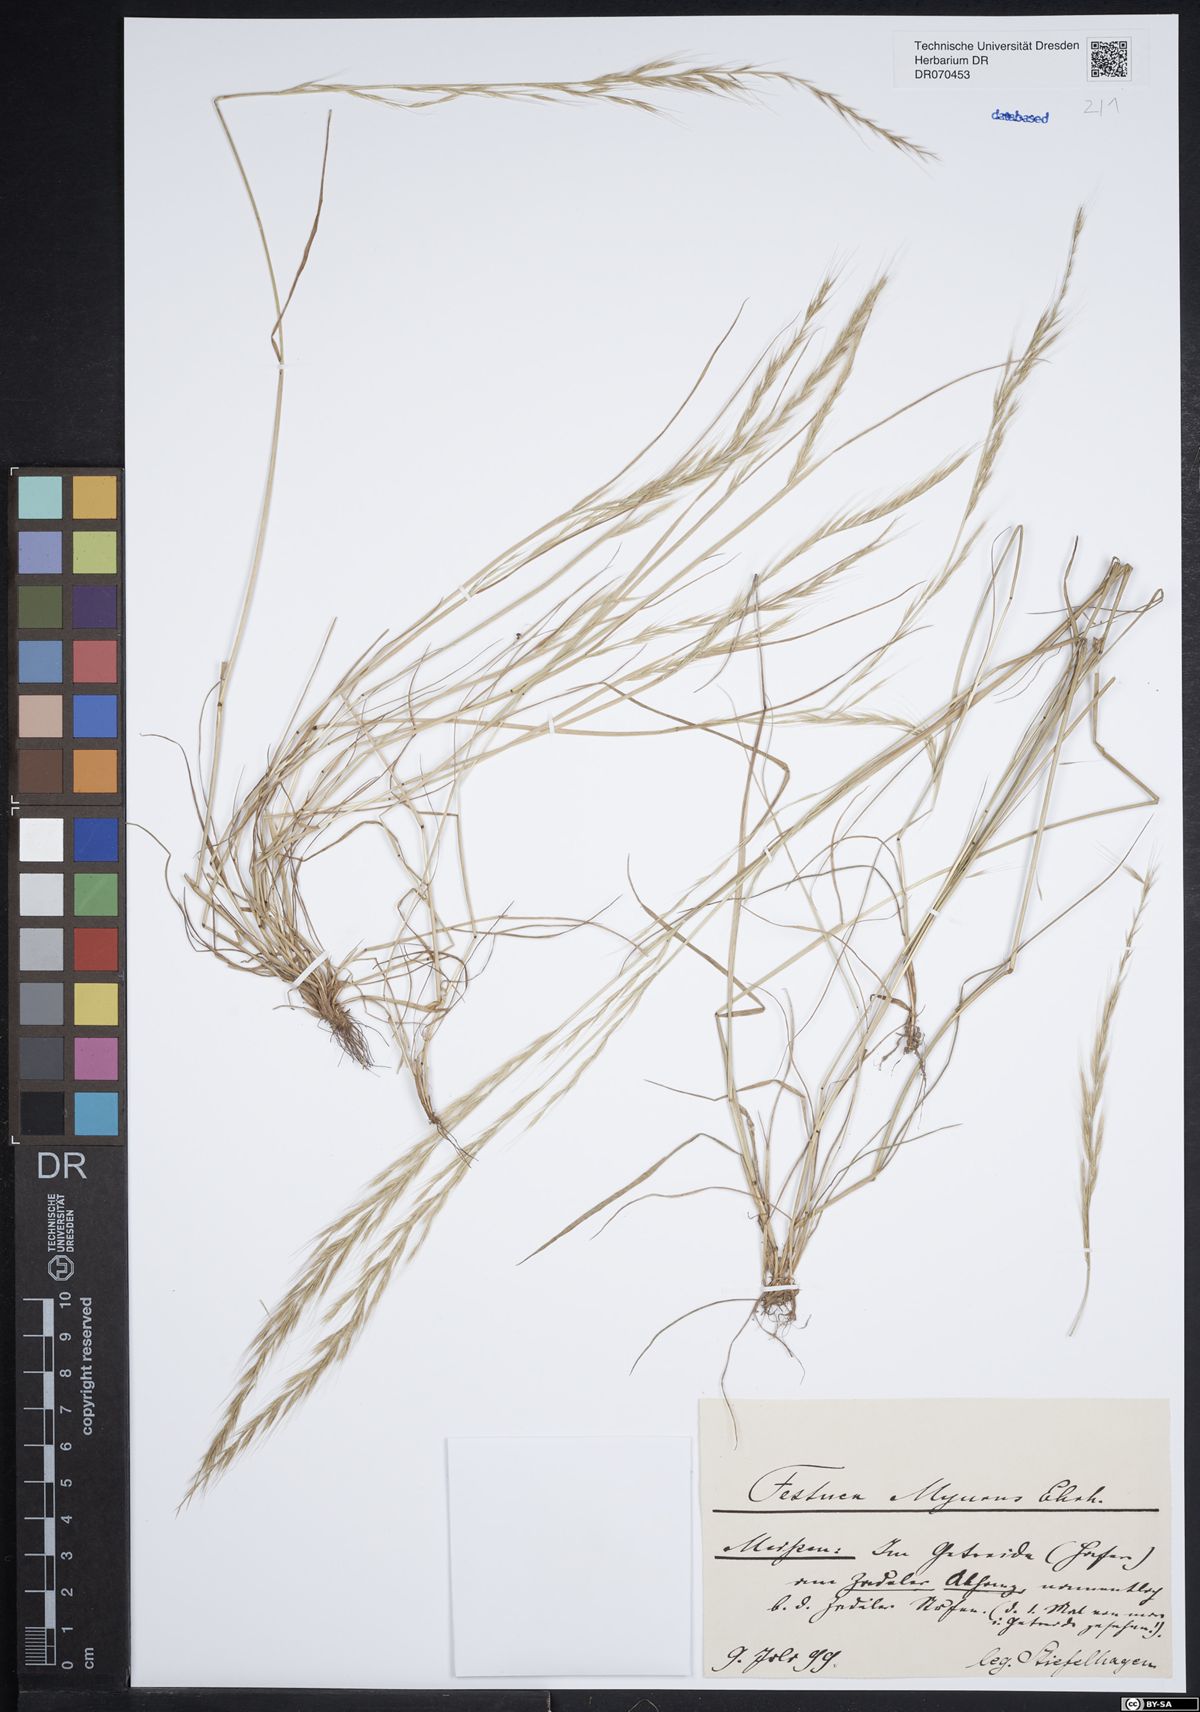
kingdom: Plantae
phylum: Tracheophyta
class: Liliopsida
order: Poales
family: Poaceae
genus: Festuca
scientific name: Festuca myuros
